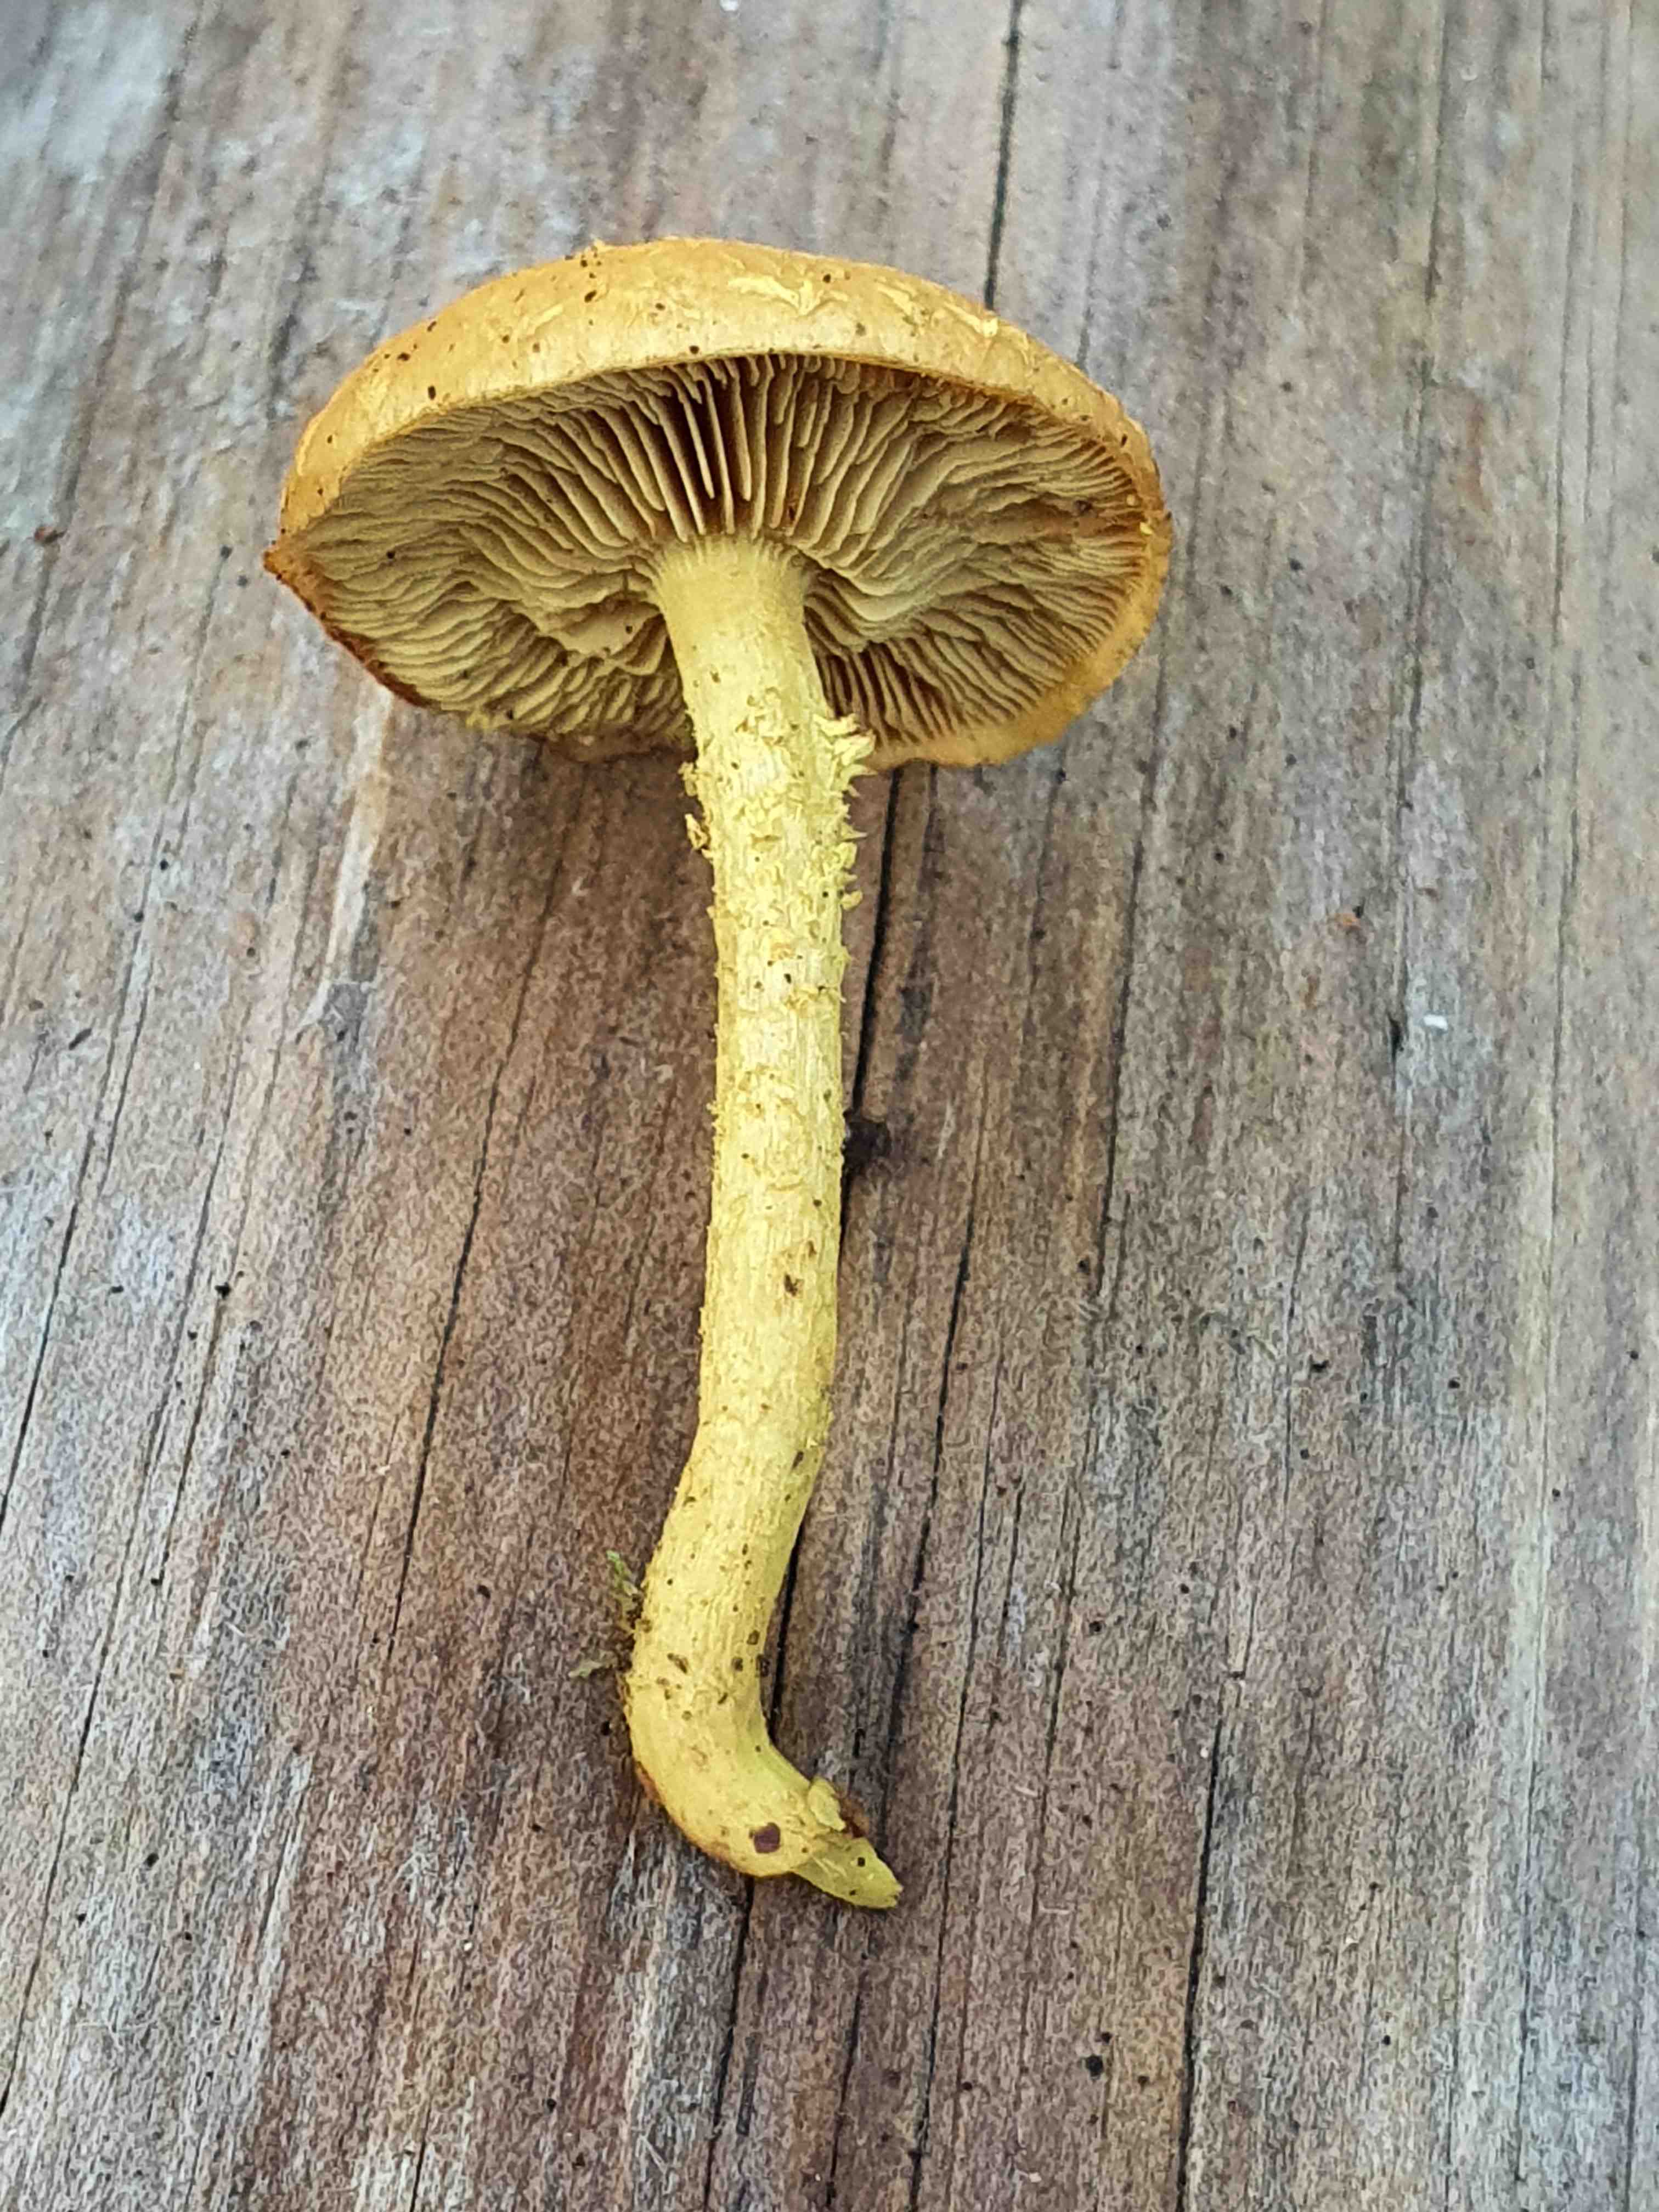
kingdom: Fungi
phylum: Basidiomycota
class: Agaricomycetes
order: Agaricales
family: Strophariaceae
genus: Pholiota
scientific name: Pholiota flammans
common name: flamme-skælhat
